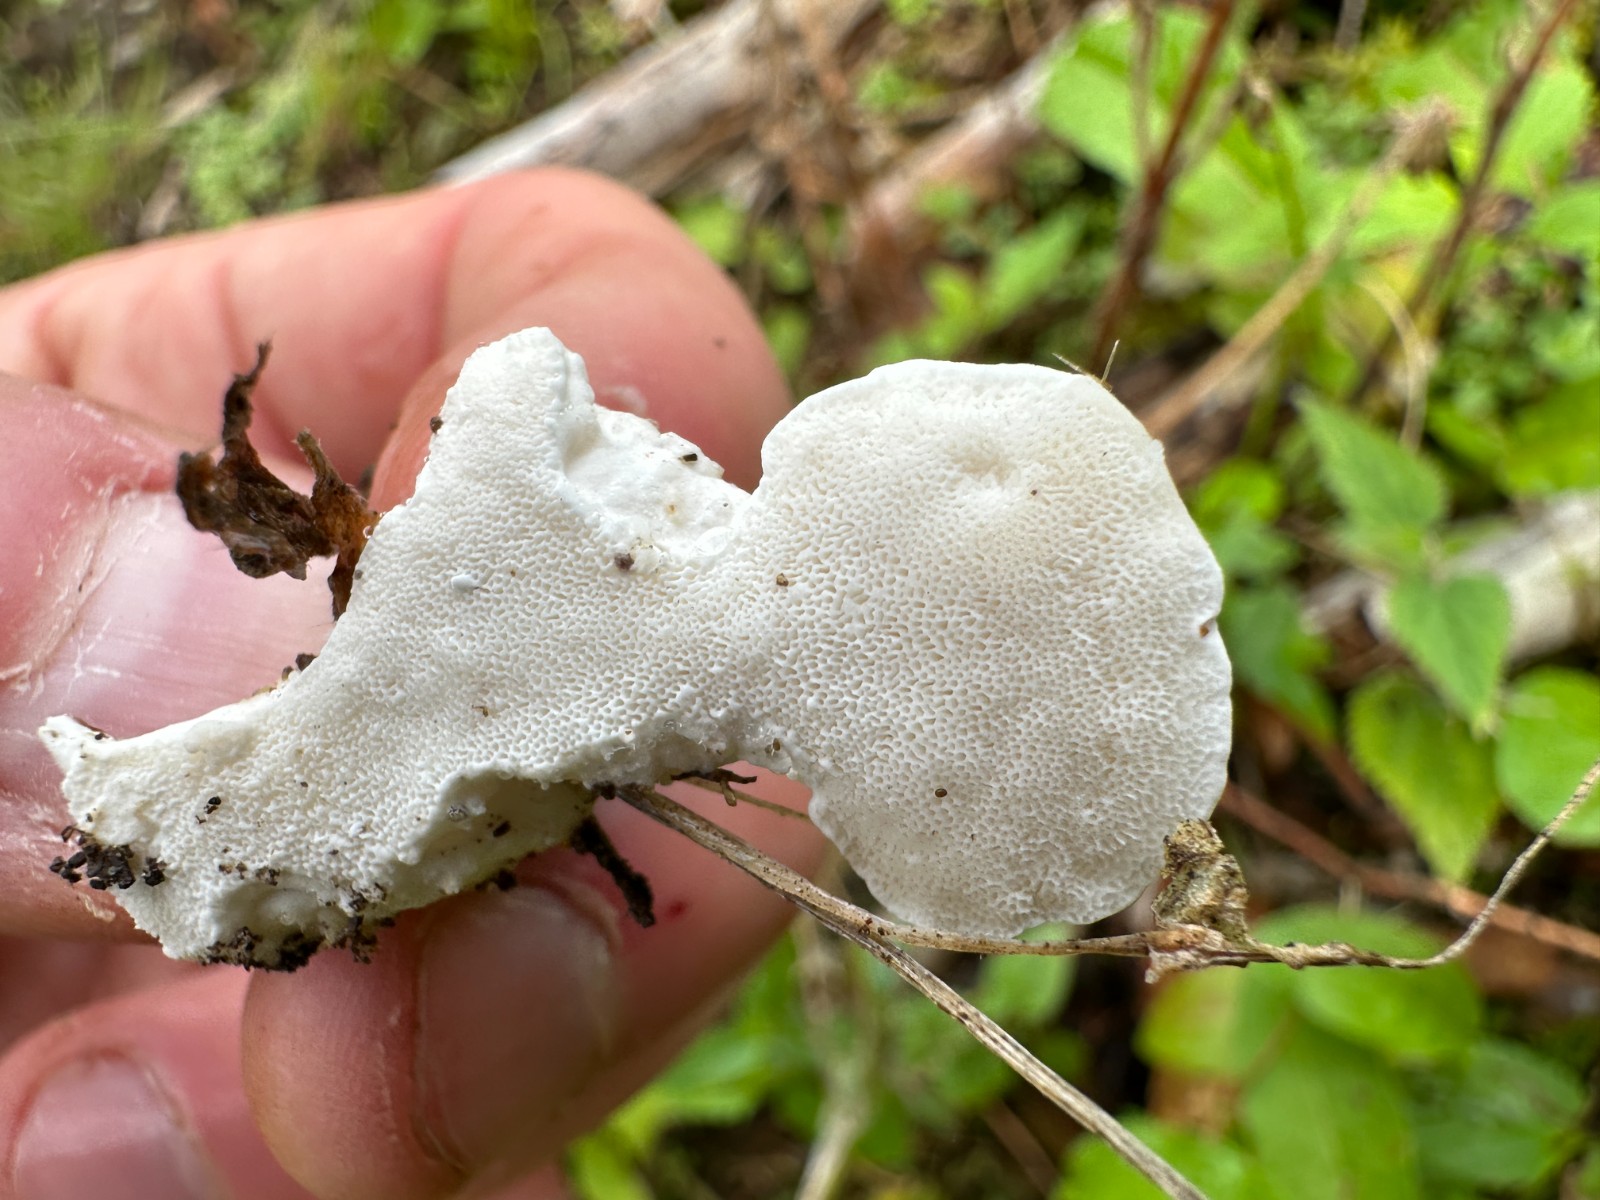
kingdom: Fungi
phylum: Basidiomycota
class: Agaricomycetes
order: Polyporales
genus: Amaropostia
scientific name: Amaropostia stiptica
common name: bitter kødporesvamp
